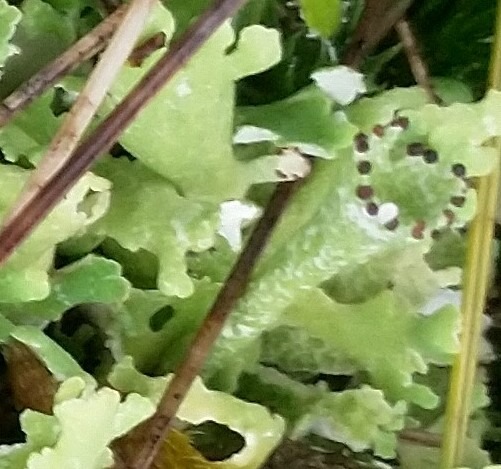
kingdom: Fungi
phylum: Ascomycota
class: Lecanoromycetes
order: Lecanorales
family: Cladoniaceae
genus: Cladonia
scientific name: Cladonia foliacea
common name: Fliget bægerlav
